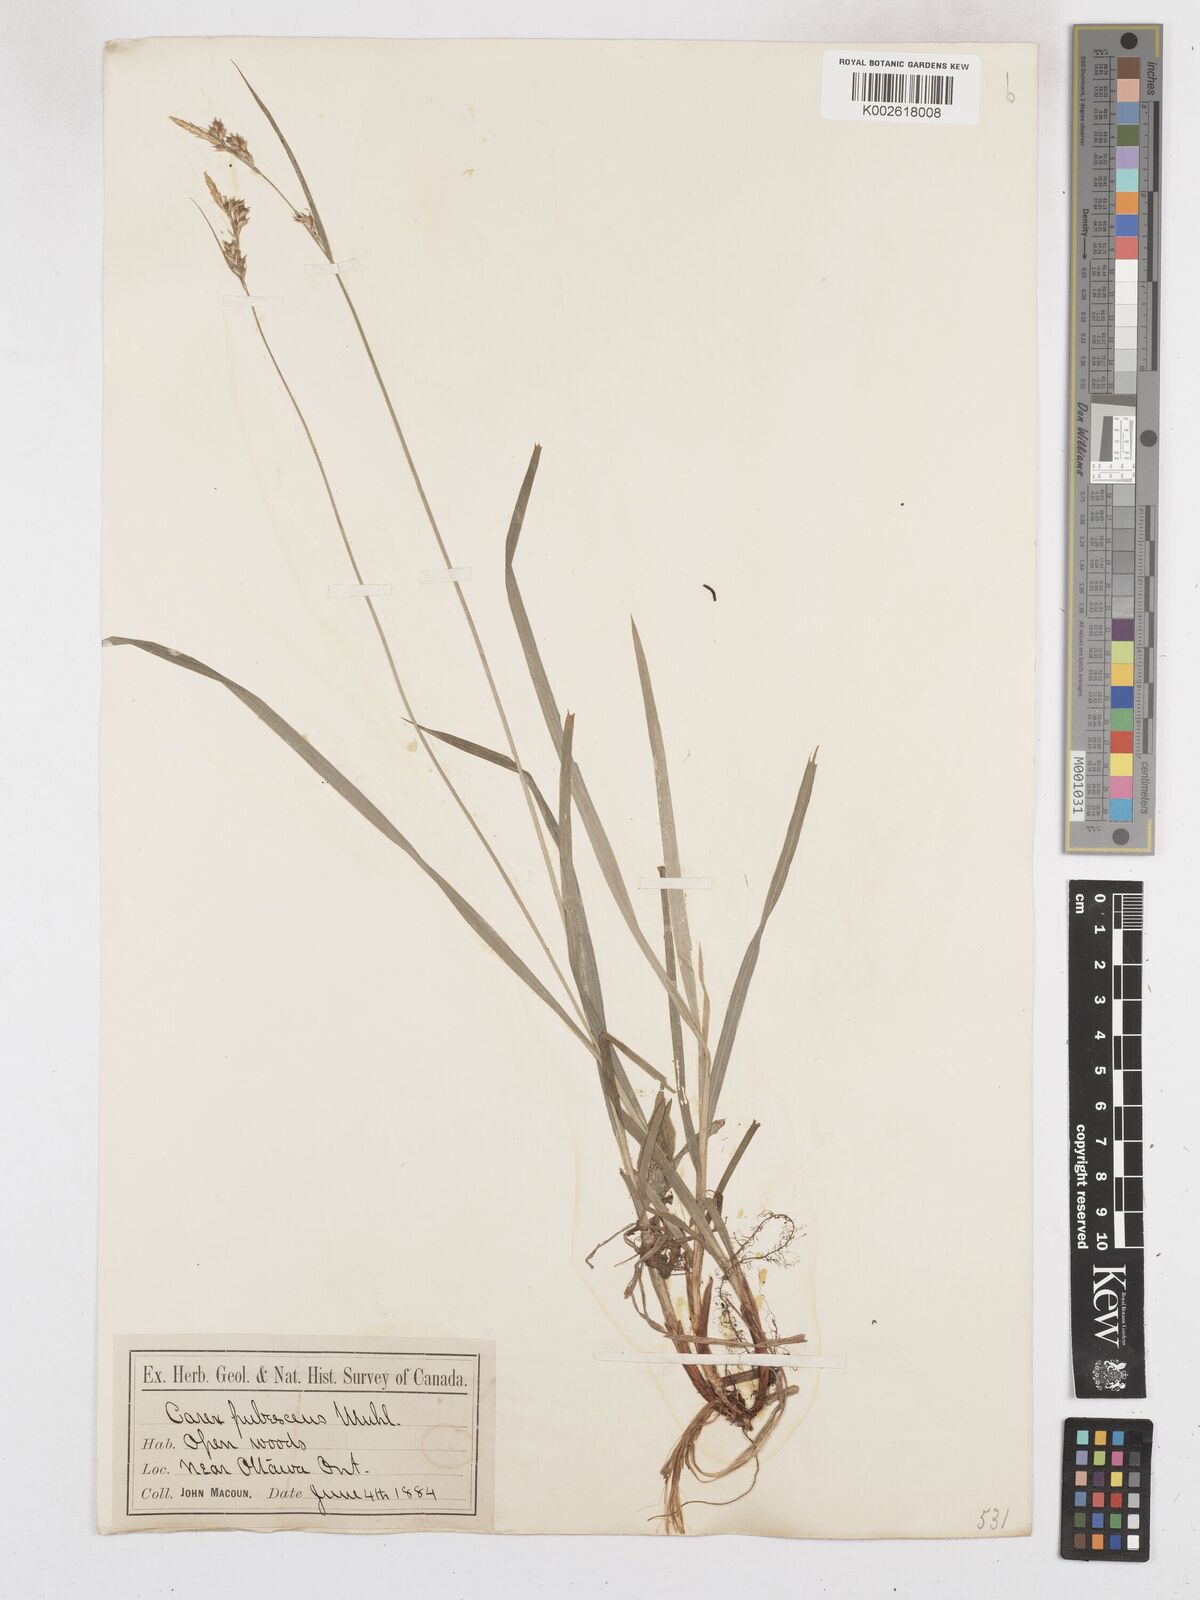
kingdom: Plantae
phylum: Tracheophyta
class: Liliopsida
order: Poales
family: Cyperaceae
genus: Carex
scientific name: Carex hirtifolia
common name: Hairy sedge
